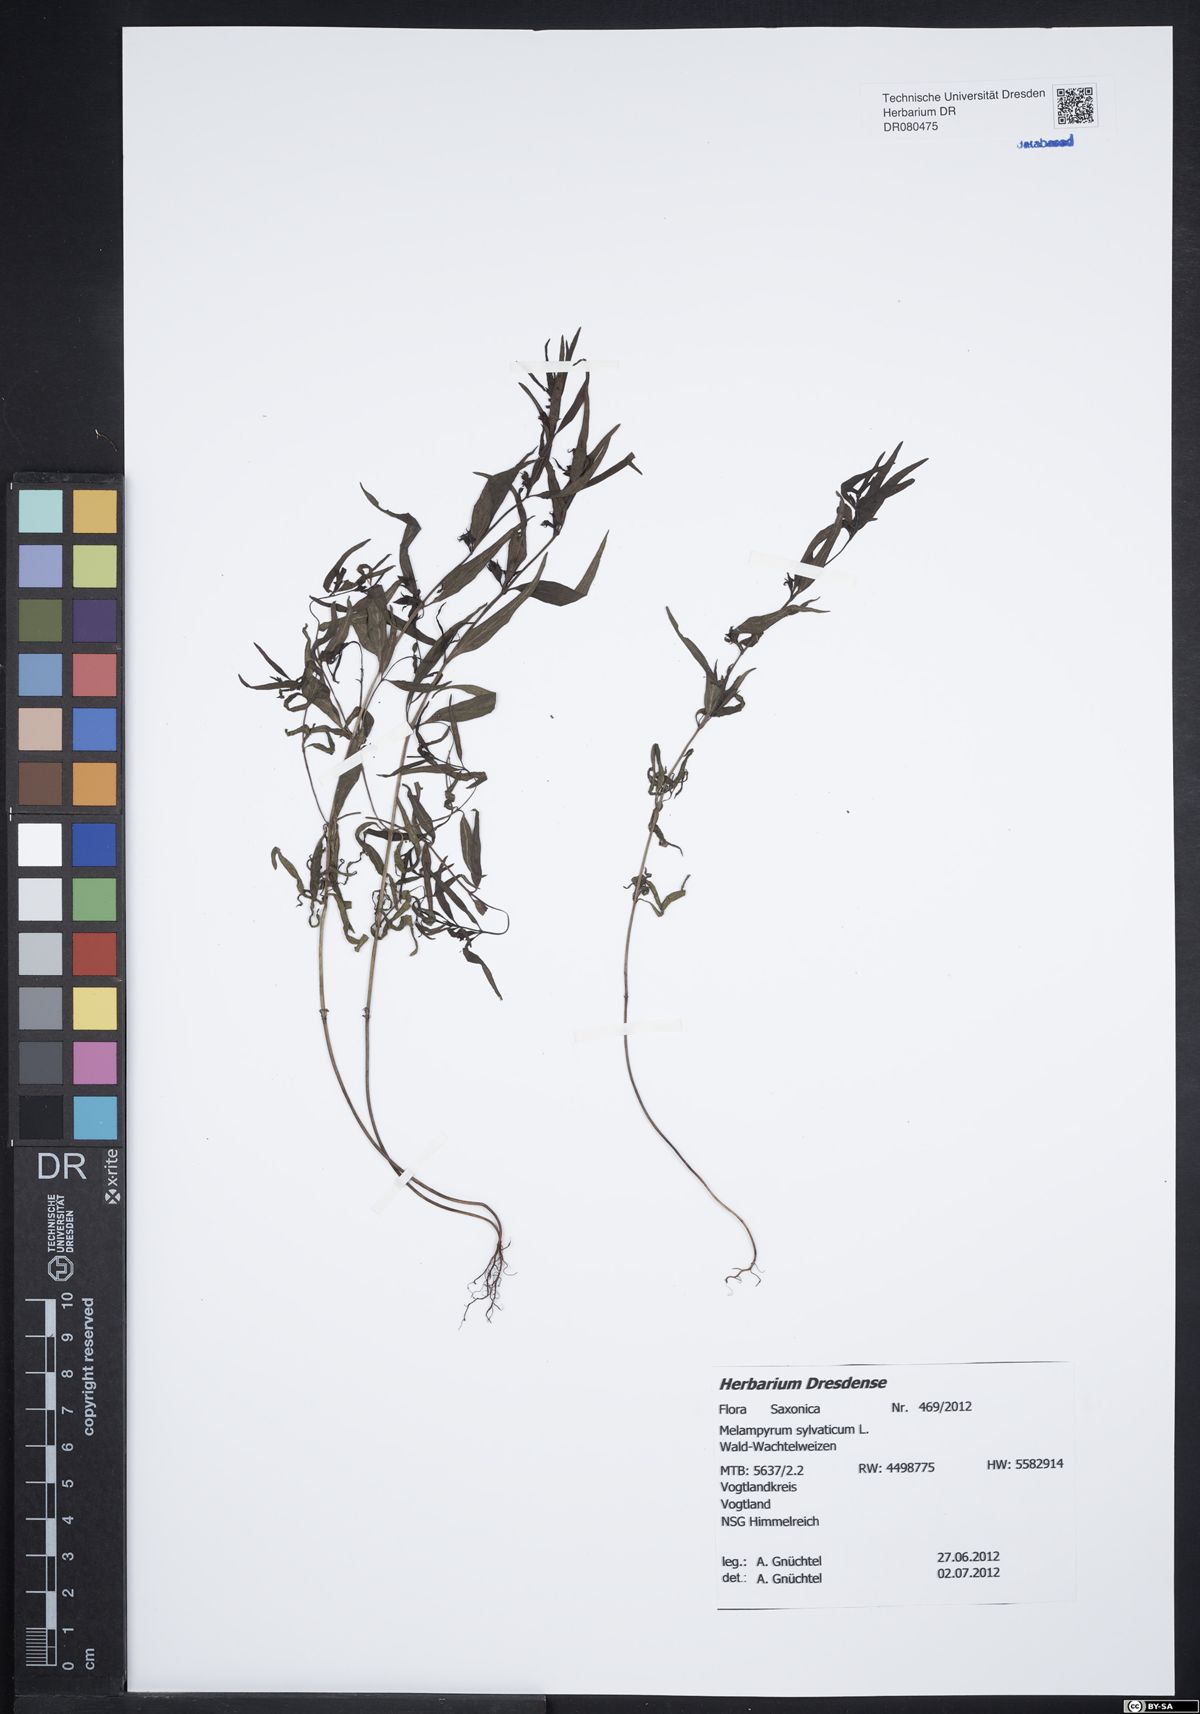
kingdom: Plantae
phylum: Tracheophyta
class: Magnoliopsida
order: Lamiales
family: Orobanchaceae
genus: Melampyrum
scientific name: Melampyrum sylvaticum
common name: Small cow-wheat
